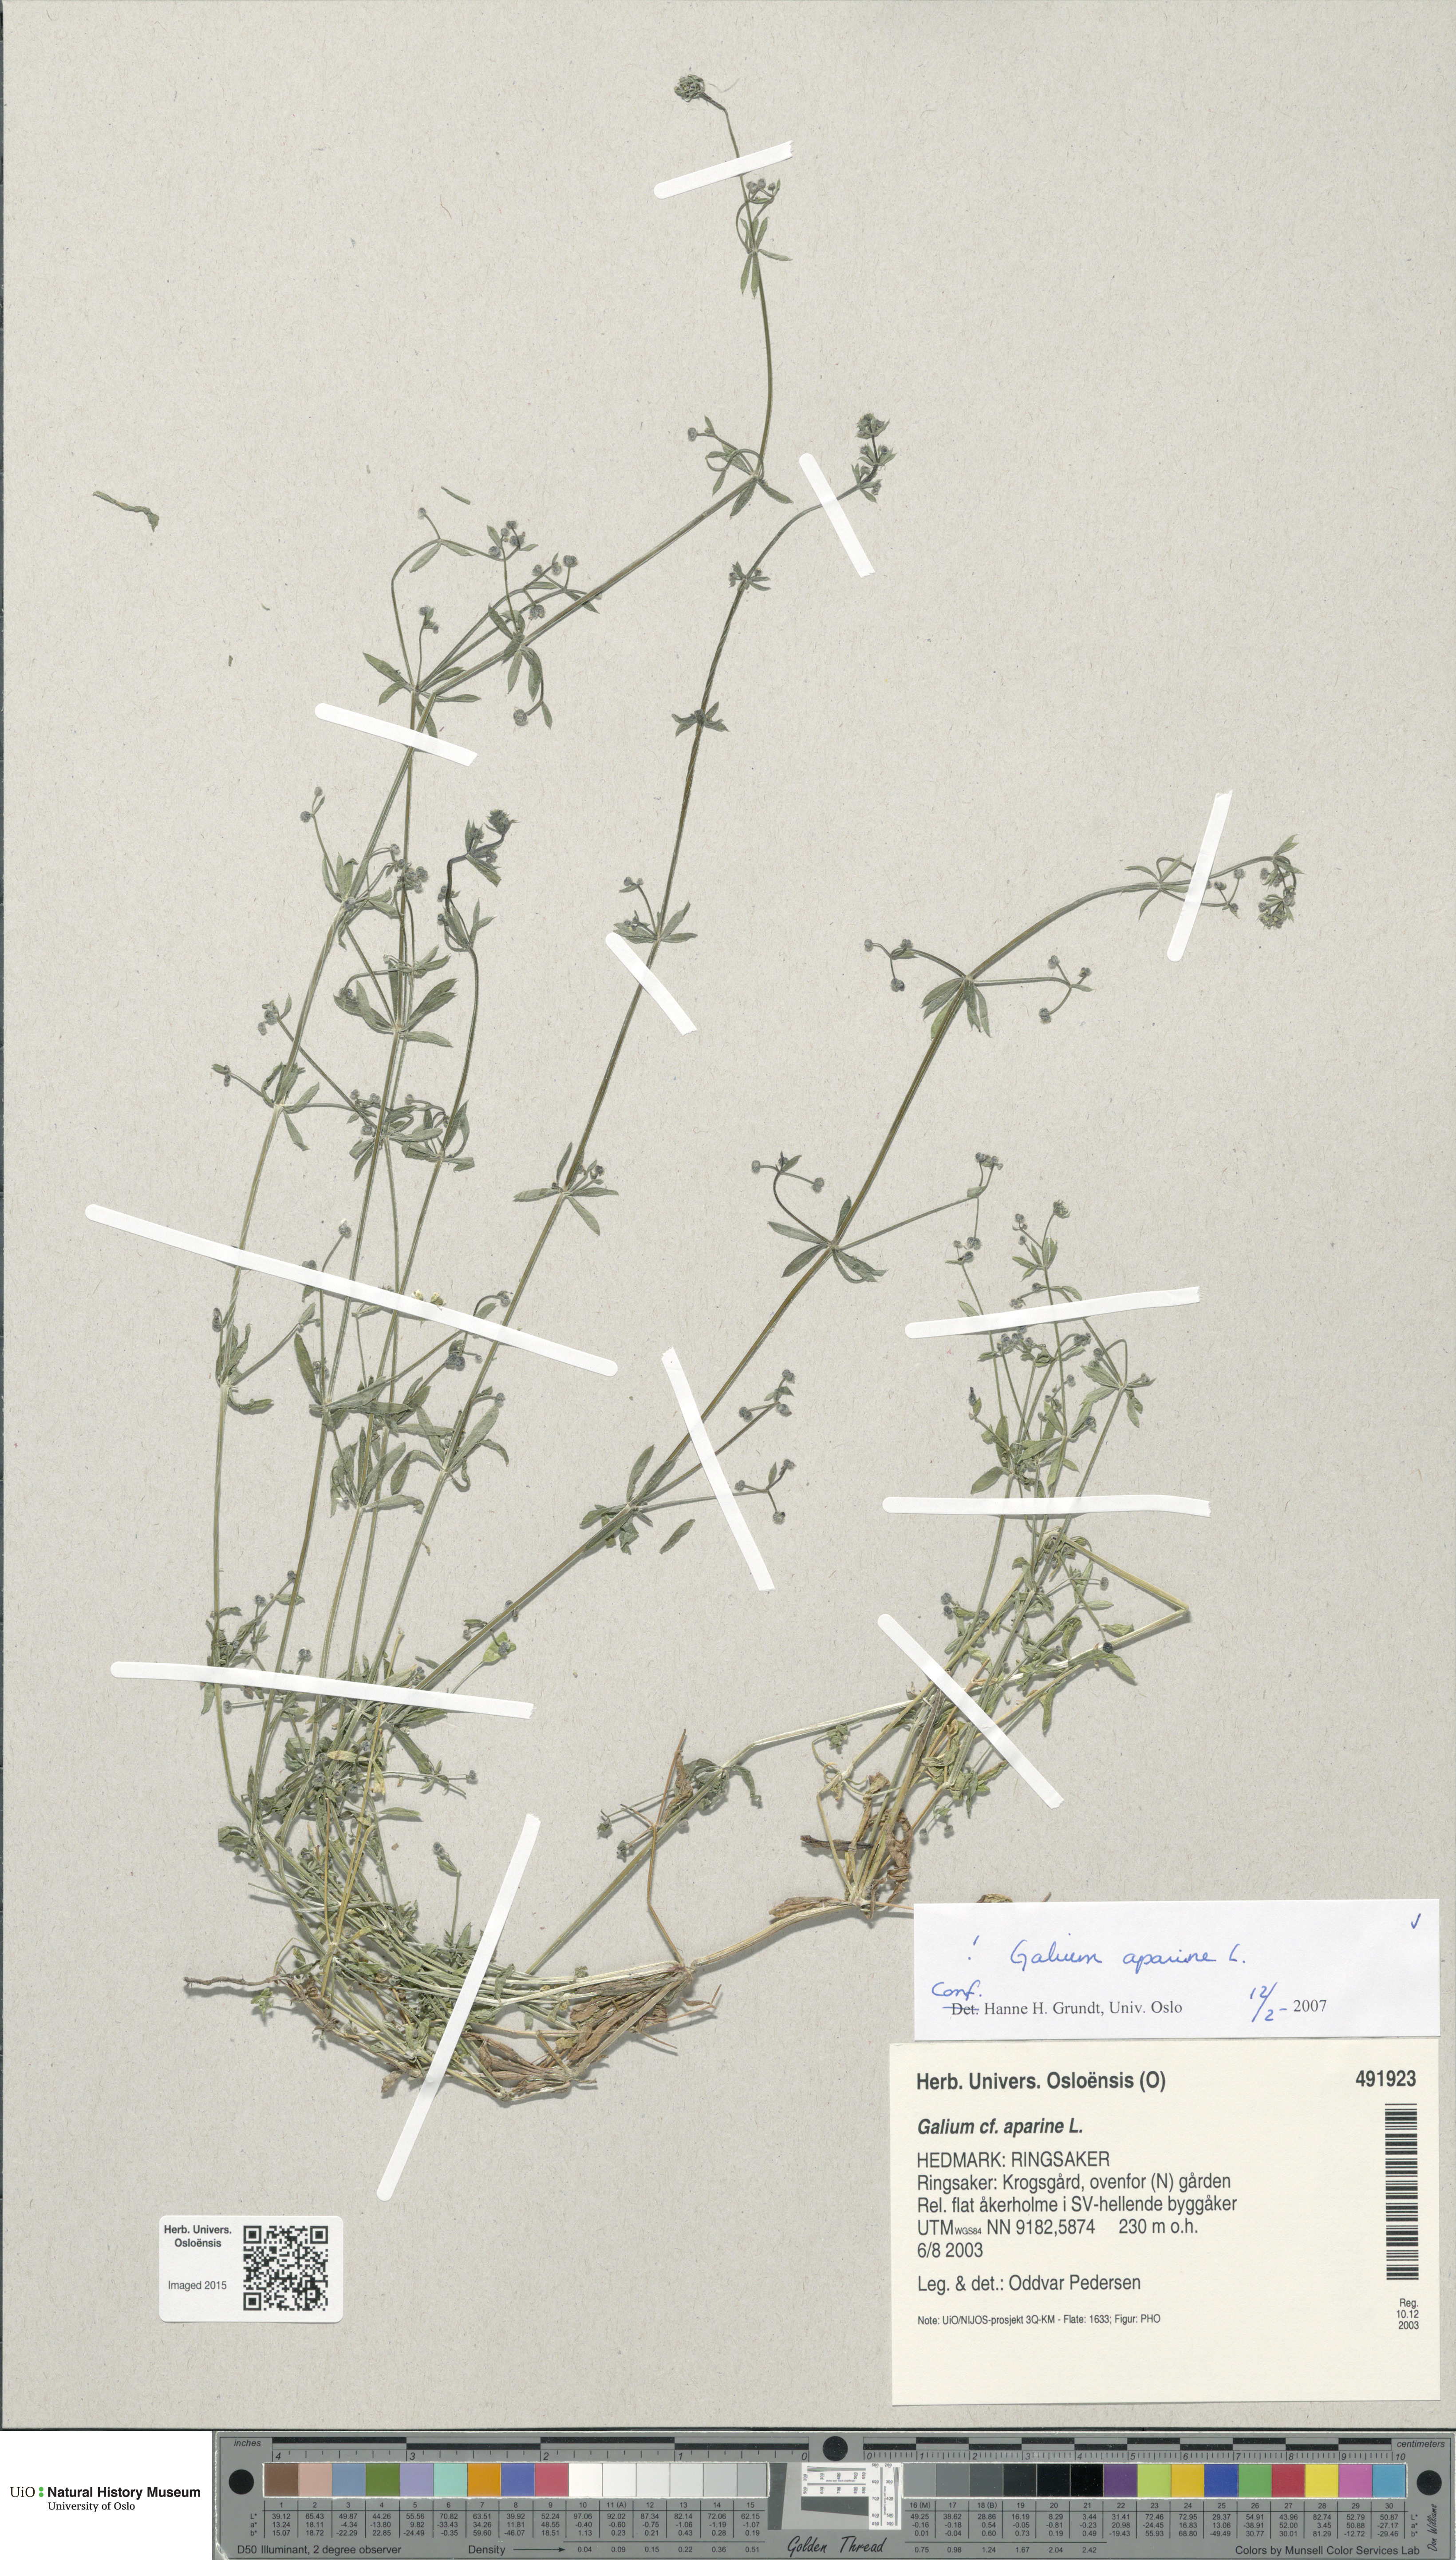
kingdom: Plantae
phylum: Tracheophyta
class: Magnoliopsida
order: Gentianales
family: Rubiaceae
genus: Galium
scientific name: Galium aparine
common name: Cleavers
